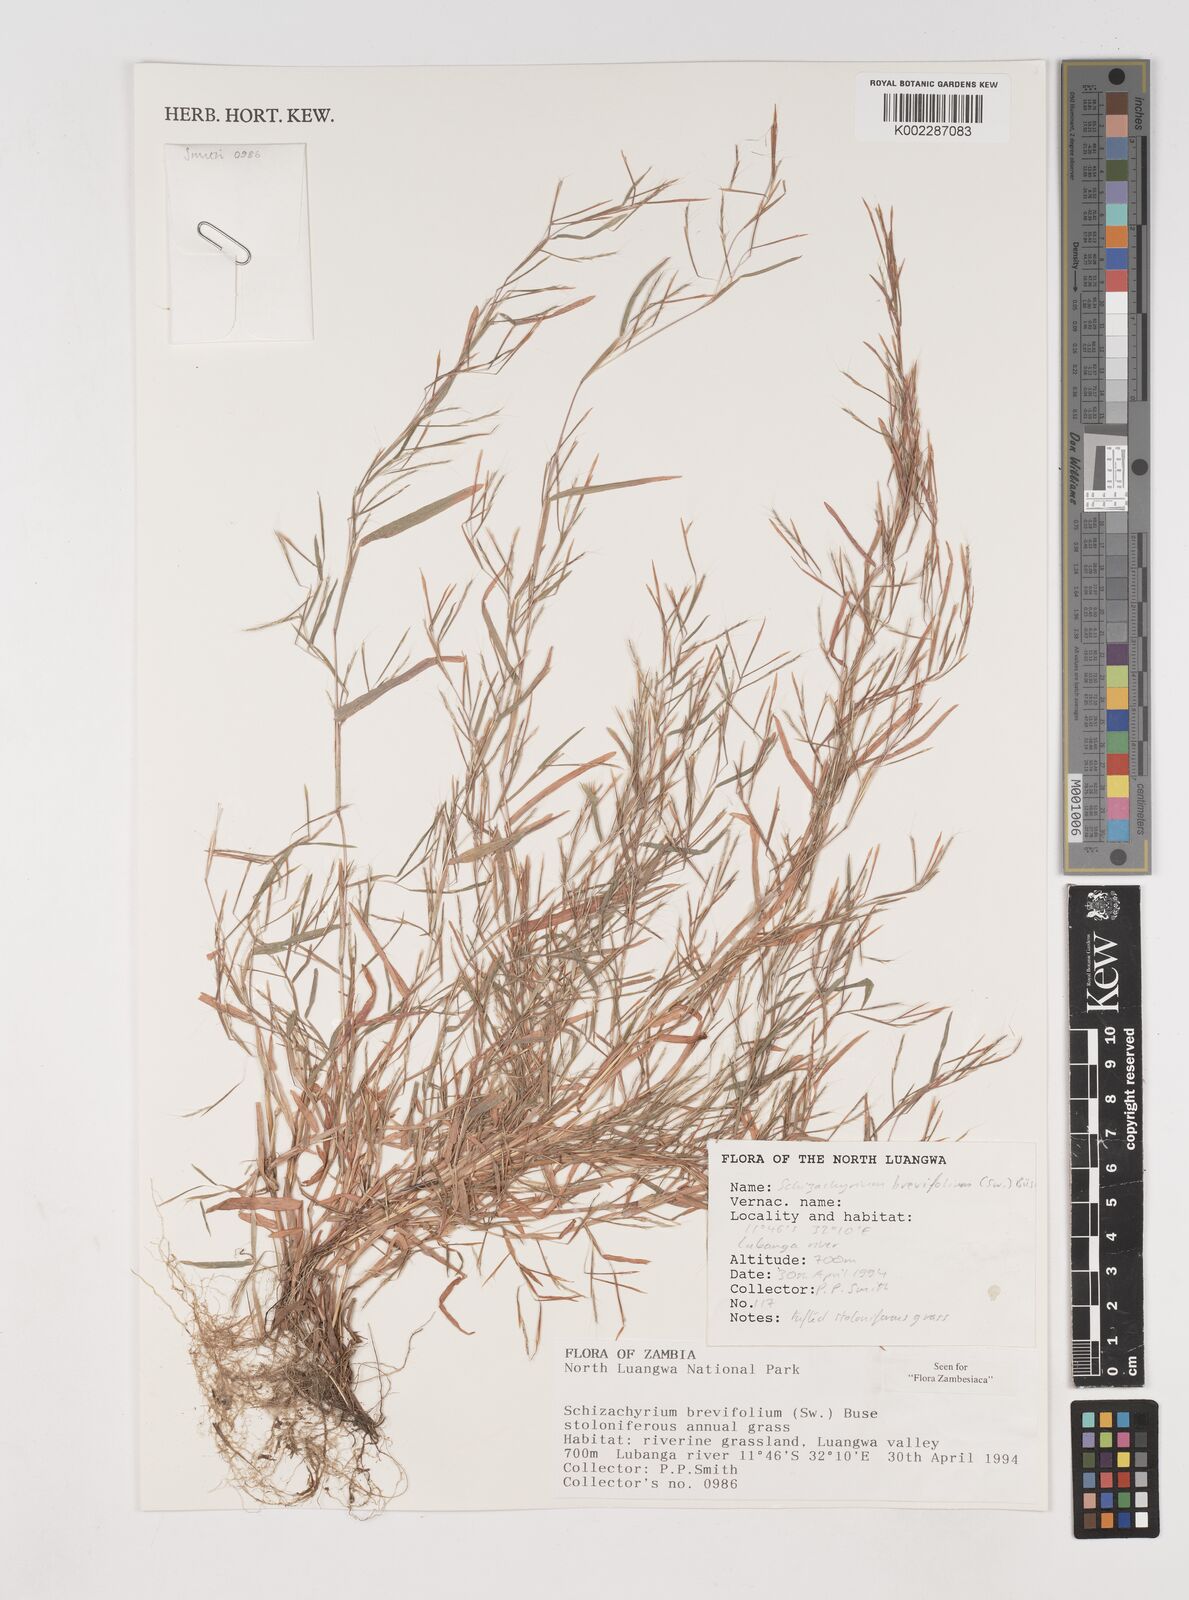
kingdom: Plantae
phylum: Tracheophyta
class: Liliopsida
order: Poales
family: Poaceae
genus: Schizachyrium
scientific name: Schizachyrium brevifolium
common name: Serillo dulce
